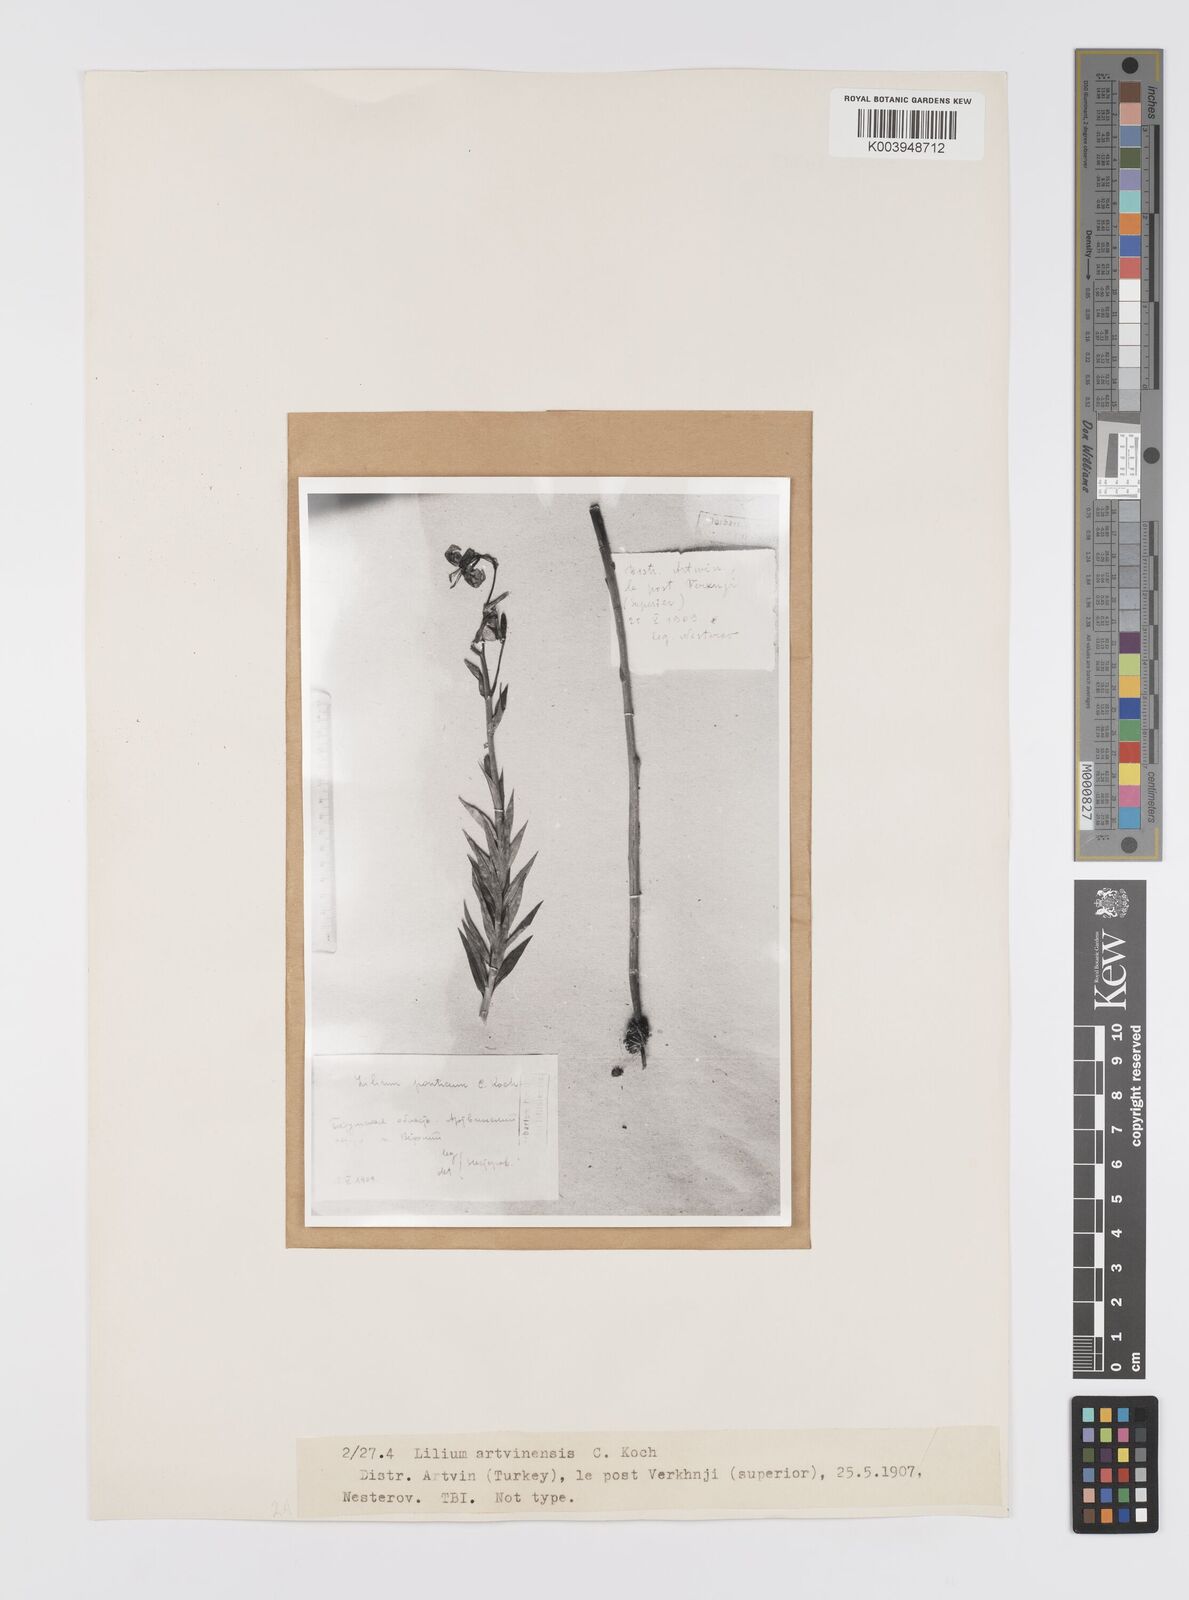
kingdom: Plantae
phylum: Tracheophyta
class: Liliopsida
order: Liliales
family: Liliaceae
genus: Lilium
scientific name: Lilium ponticum
